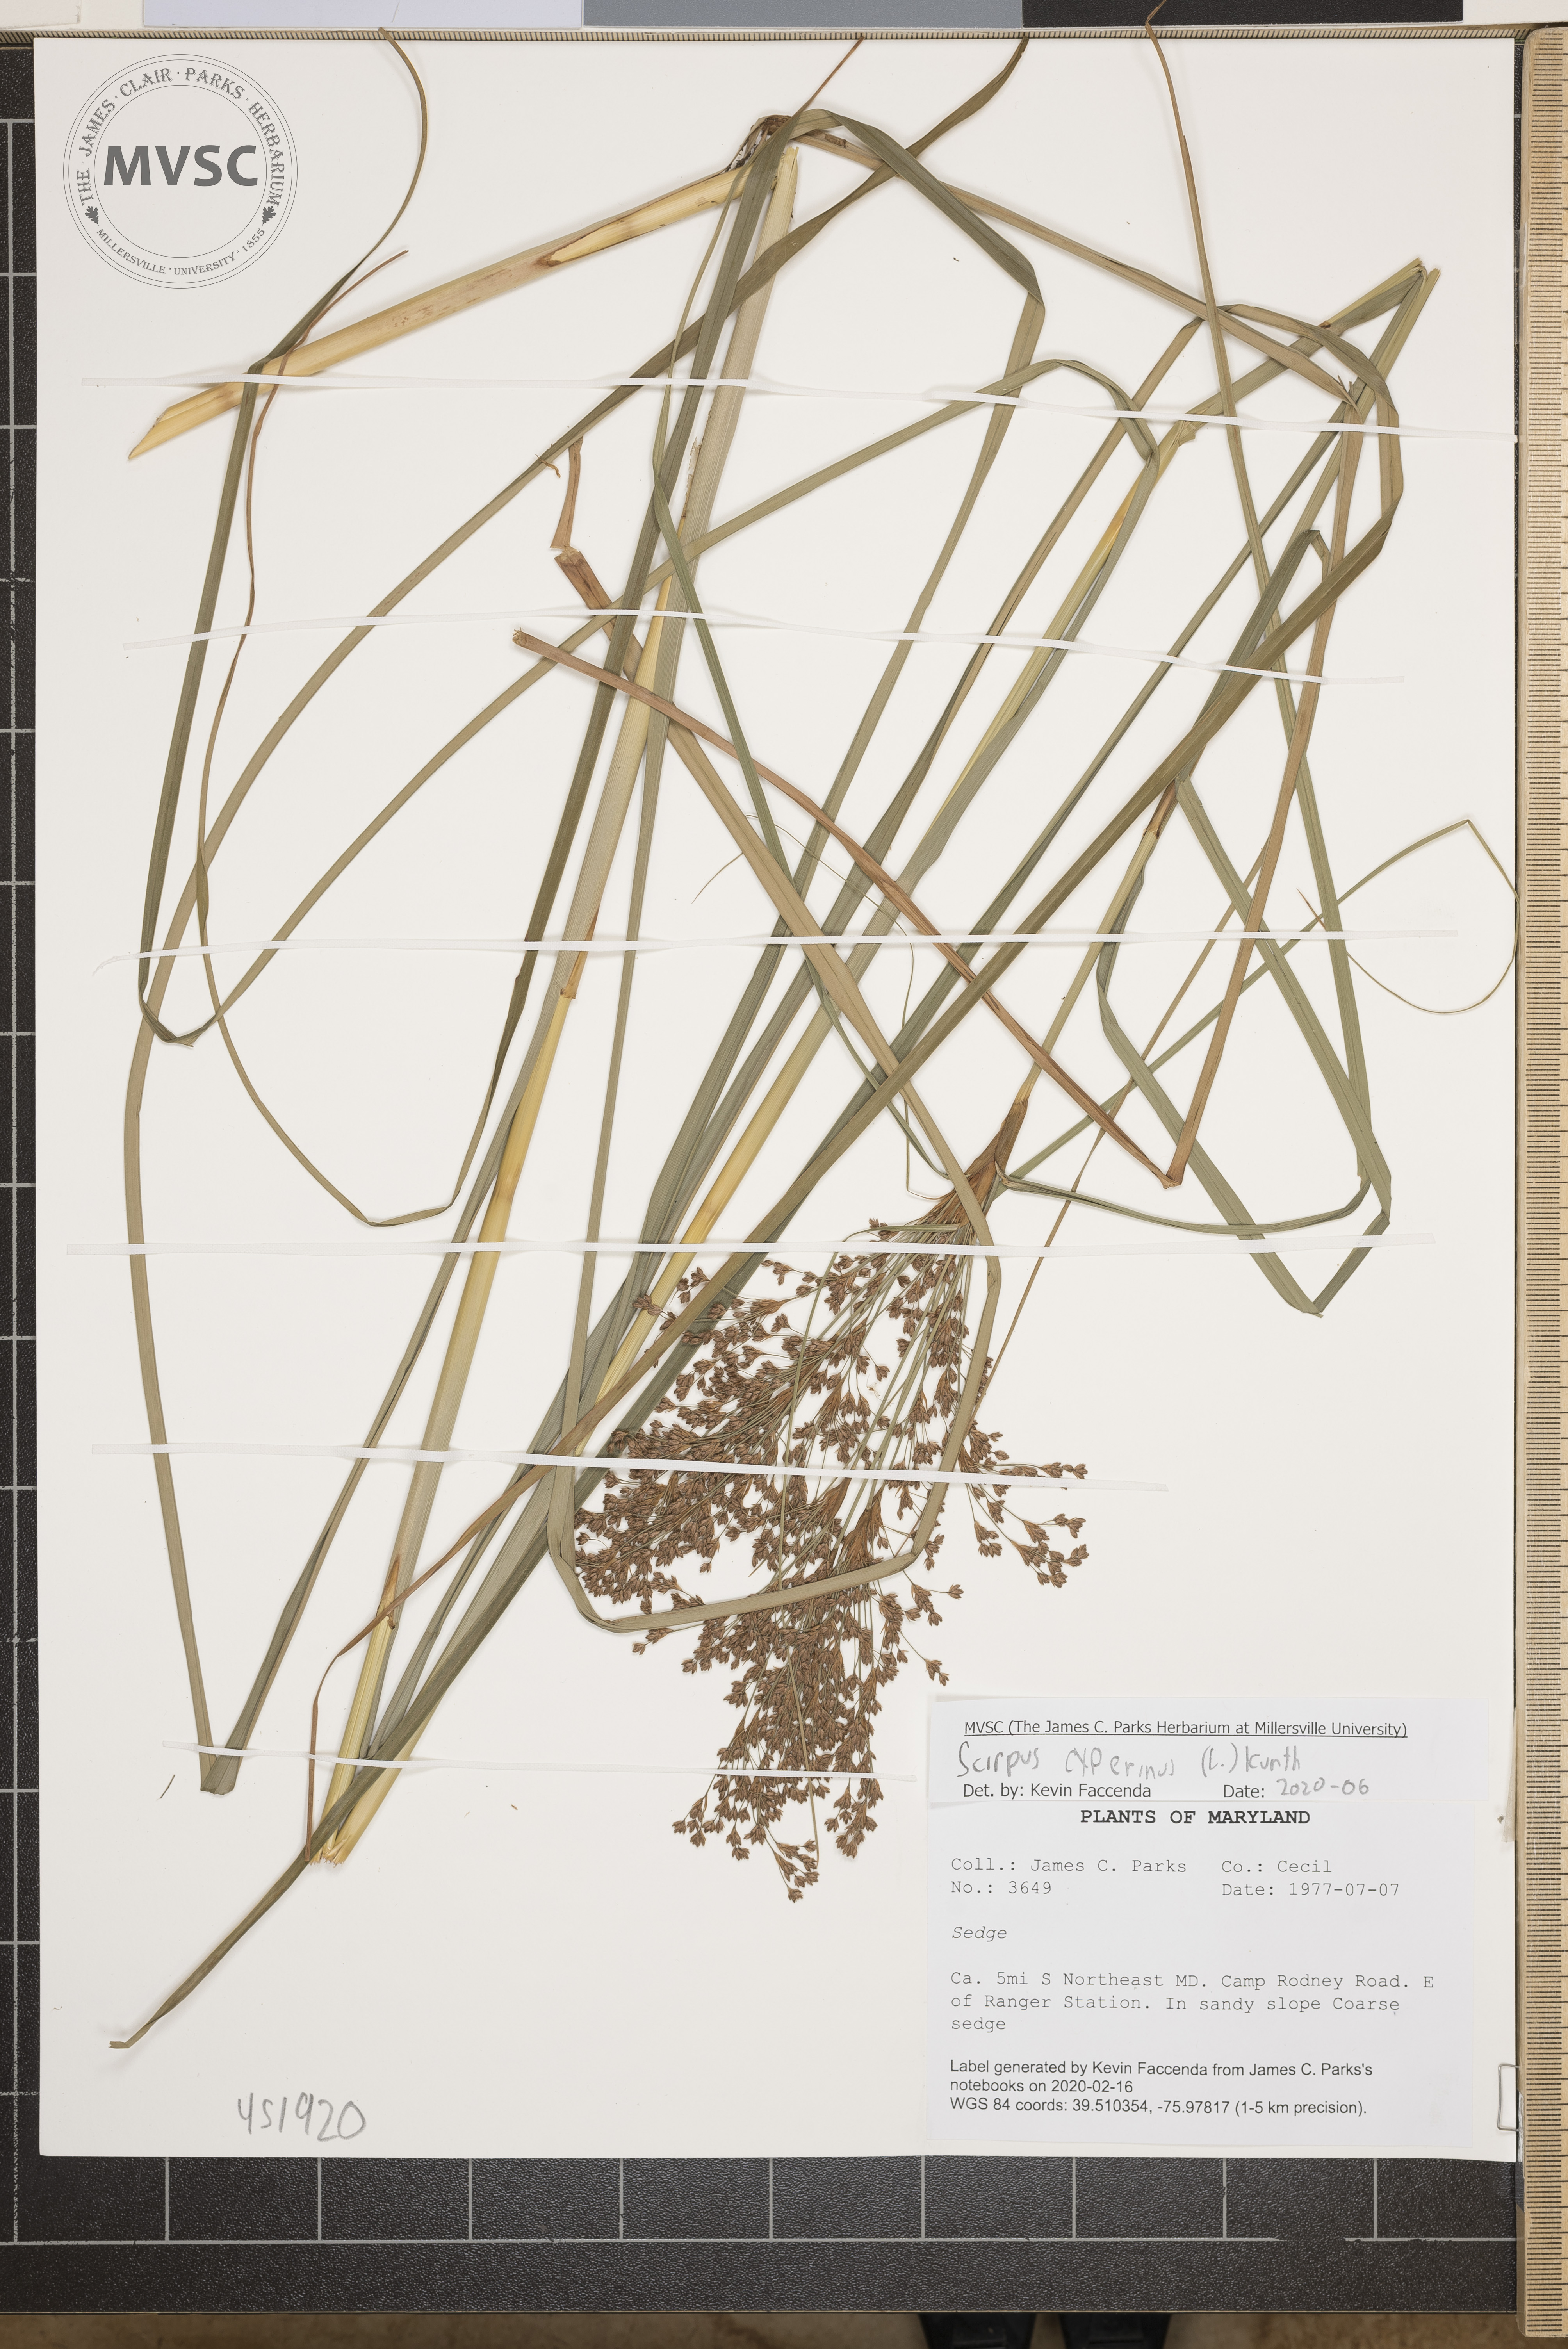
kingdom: Plantae
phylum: Tracheophyta
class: Liliopsida
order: Poales
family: Cyperaceae
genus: Scirpus
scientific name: Scirpus cyperinus
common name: Black-sheathed bulrush
